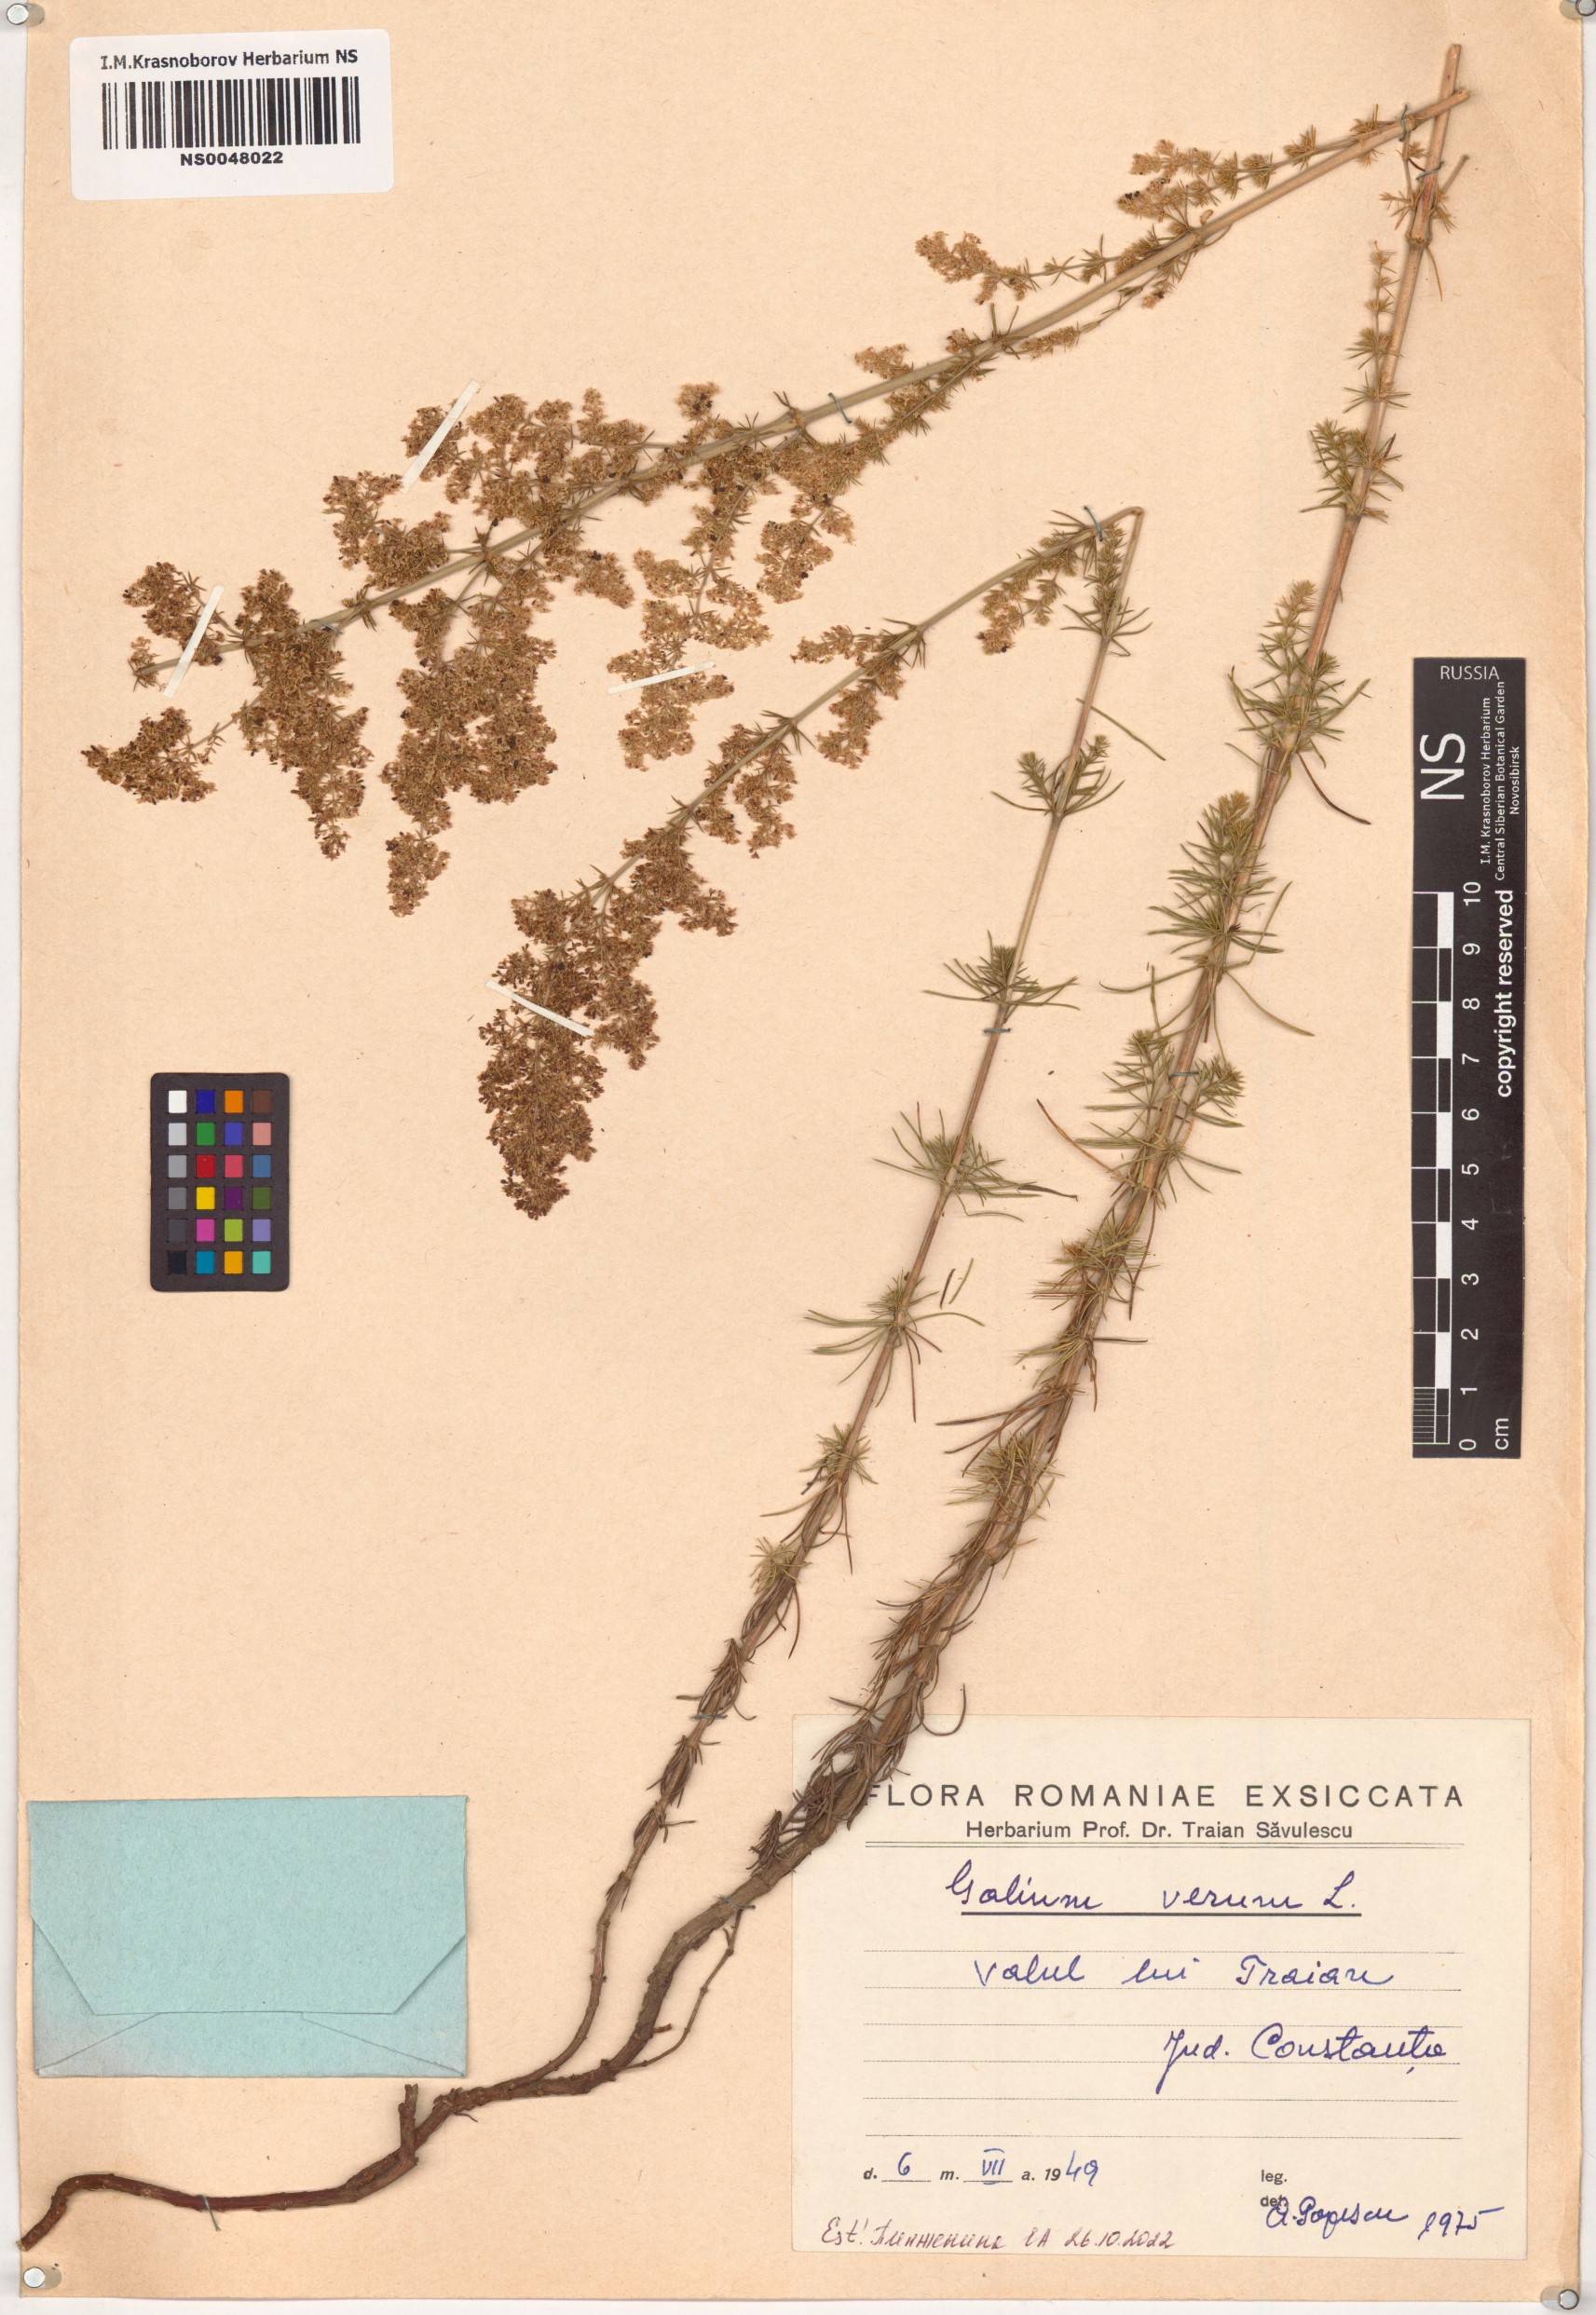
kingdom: Plantae
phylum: Tracheophyta
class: Magnoliopsida
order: Gentianales
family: Rubiaceae
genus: Galium
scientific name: Galium verum
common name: Lady's bedstraw
